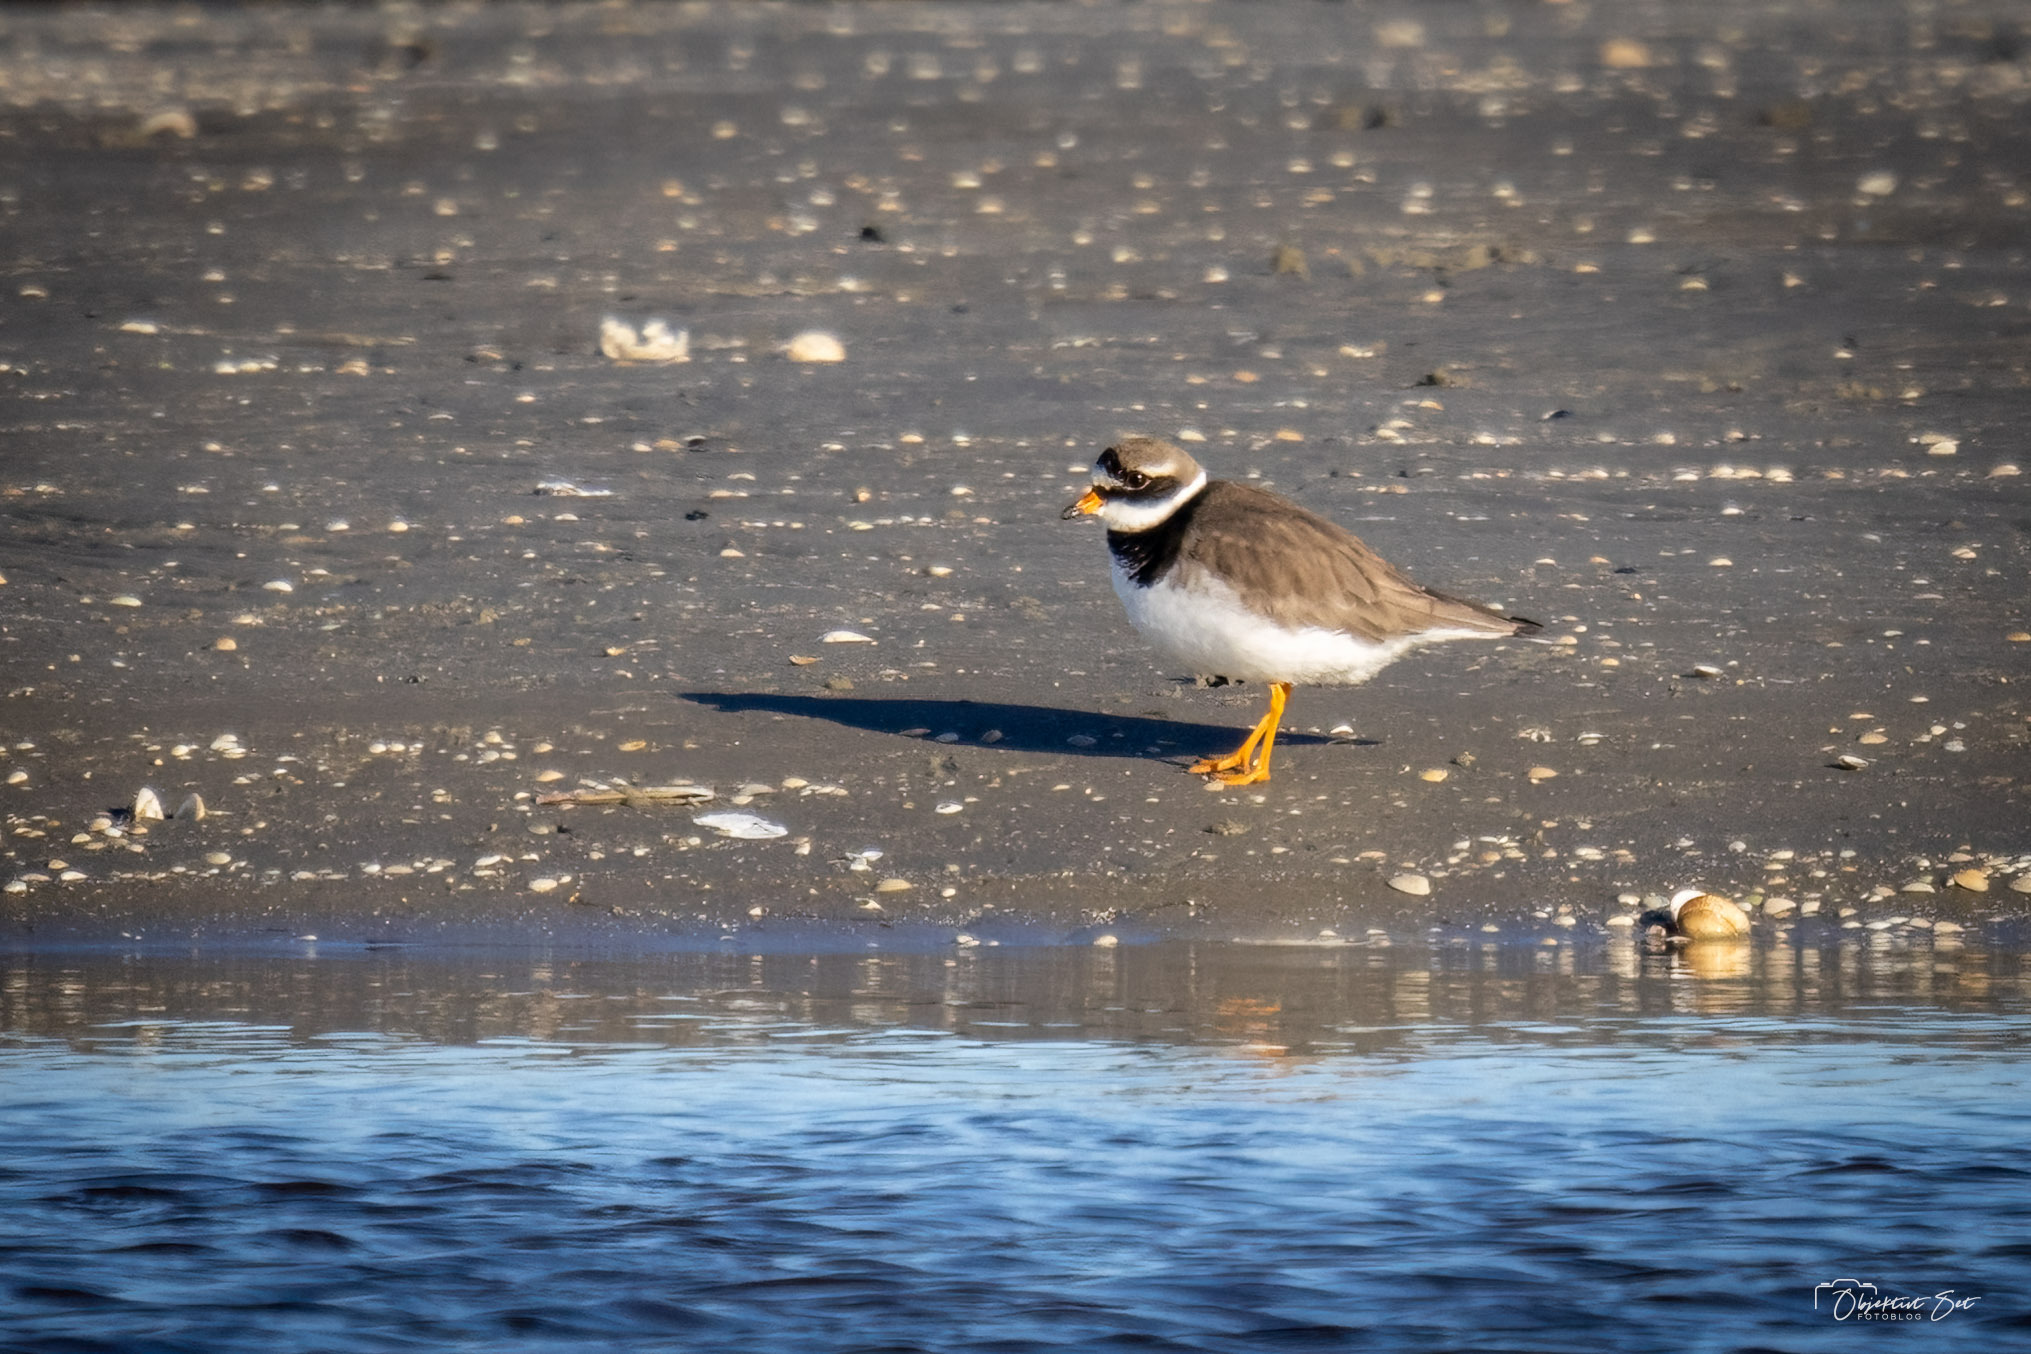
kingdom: Animalia
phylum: Chordata
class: Aves
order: Charadriiformes
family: Charadriidae
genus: Charadrius
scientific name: Charadrius hiaticula
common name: Stor præstekrave
